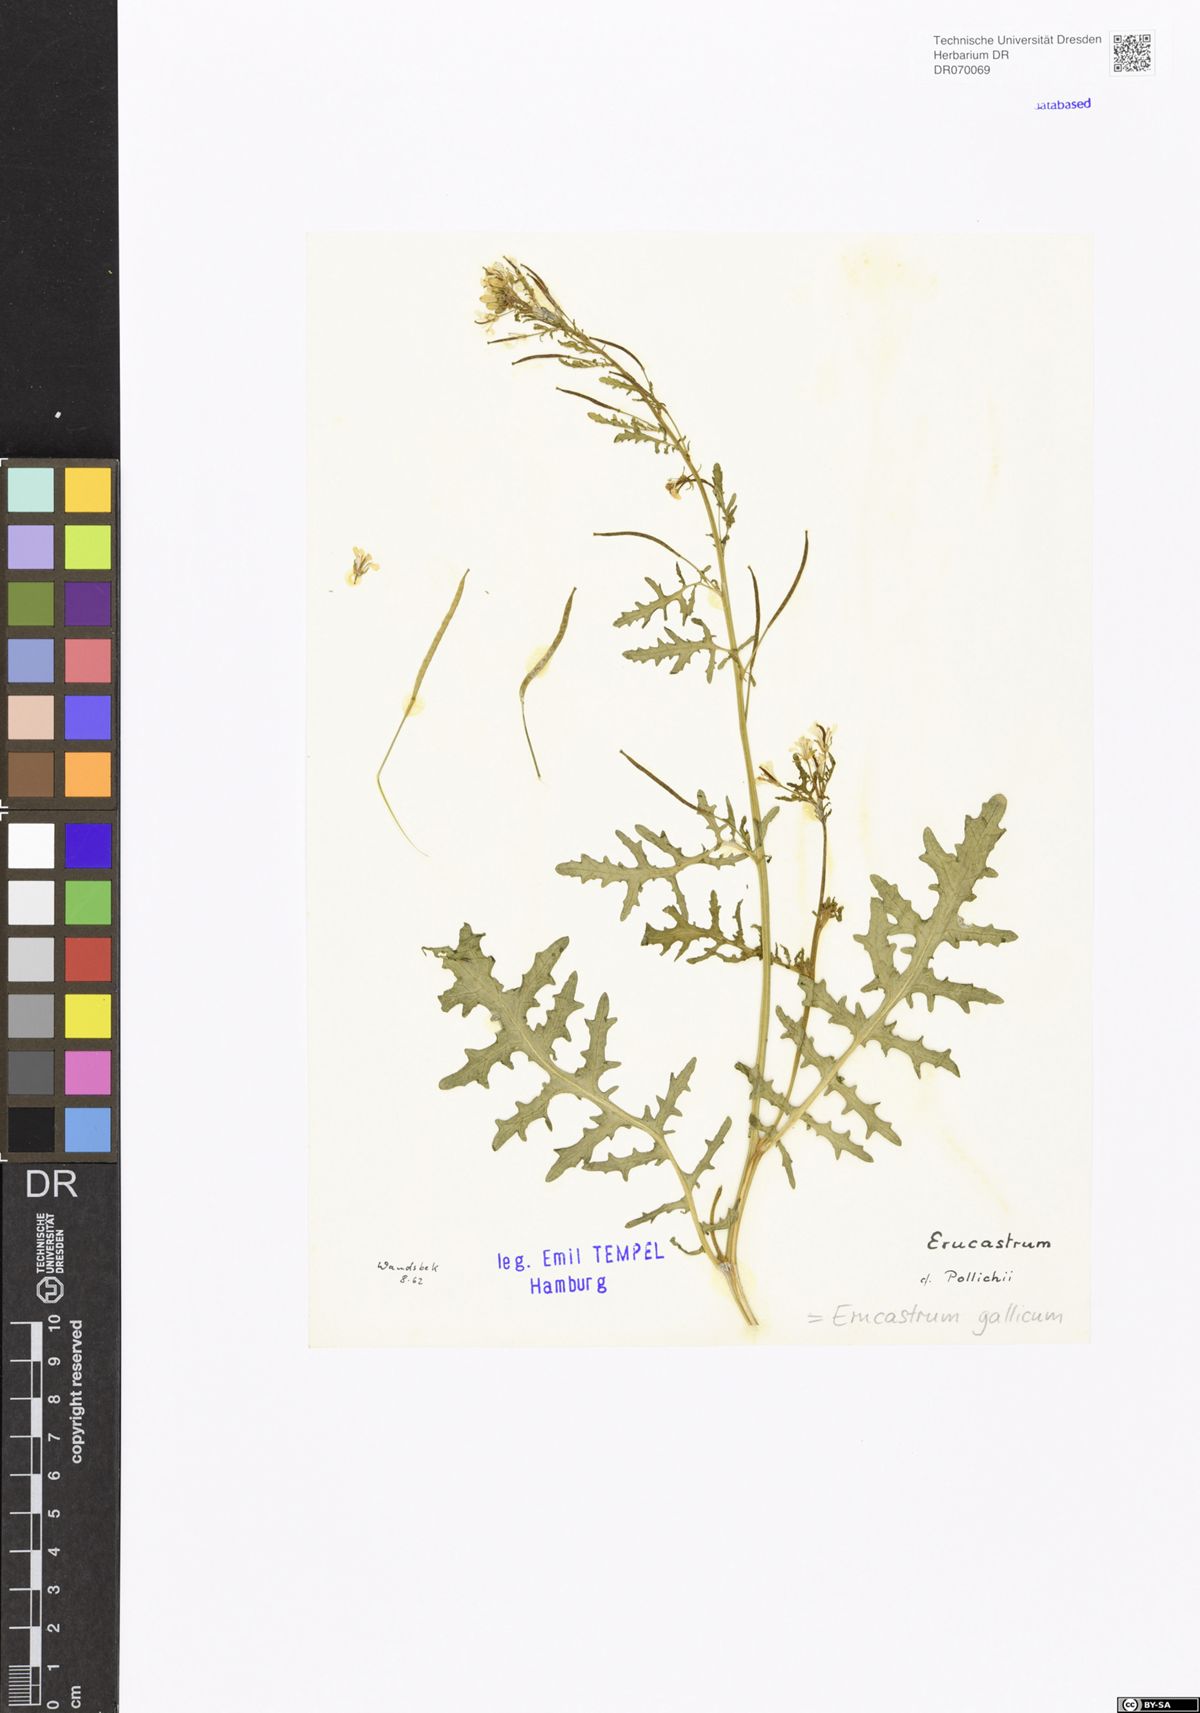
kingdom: Plantae
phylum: Tracheophyta
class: Magnoliopsida
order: Brassicales
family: Brassicaceae
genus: Erucastrum
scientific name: Erucastrum gallicum
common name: Hairy rocket
